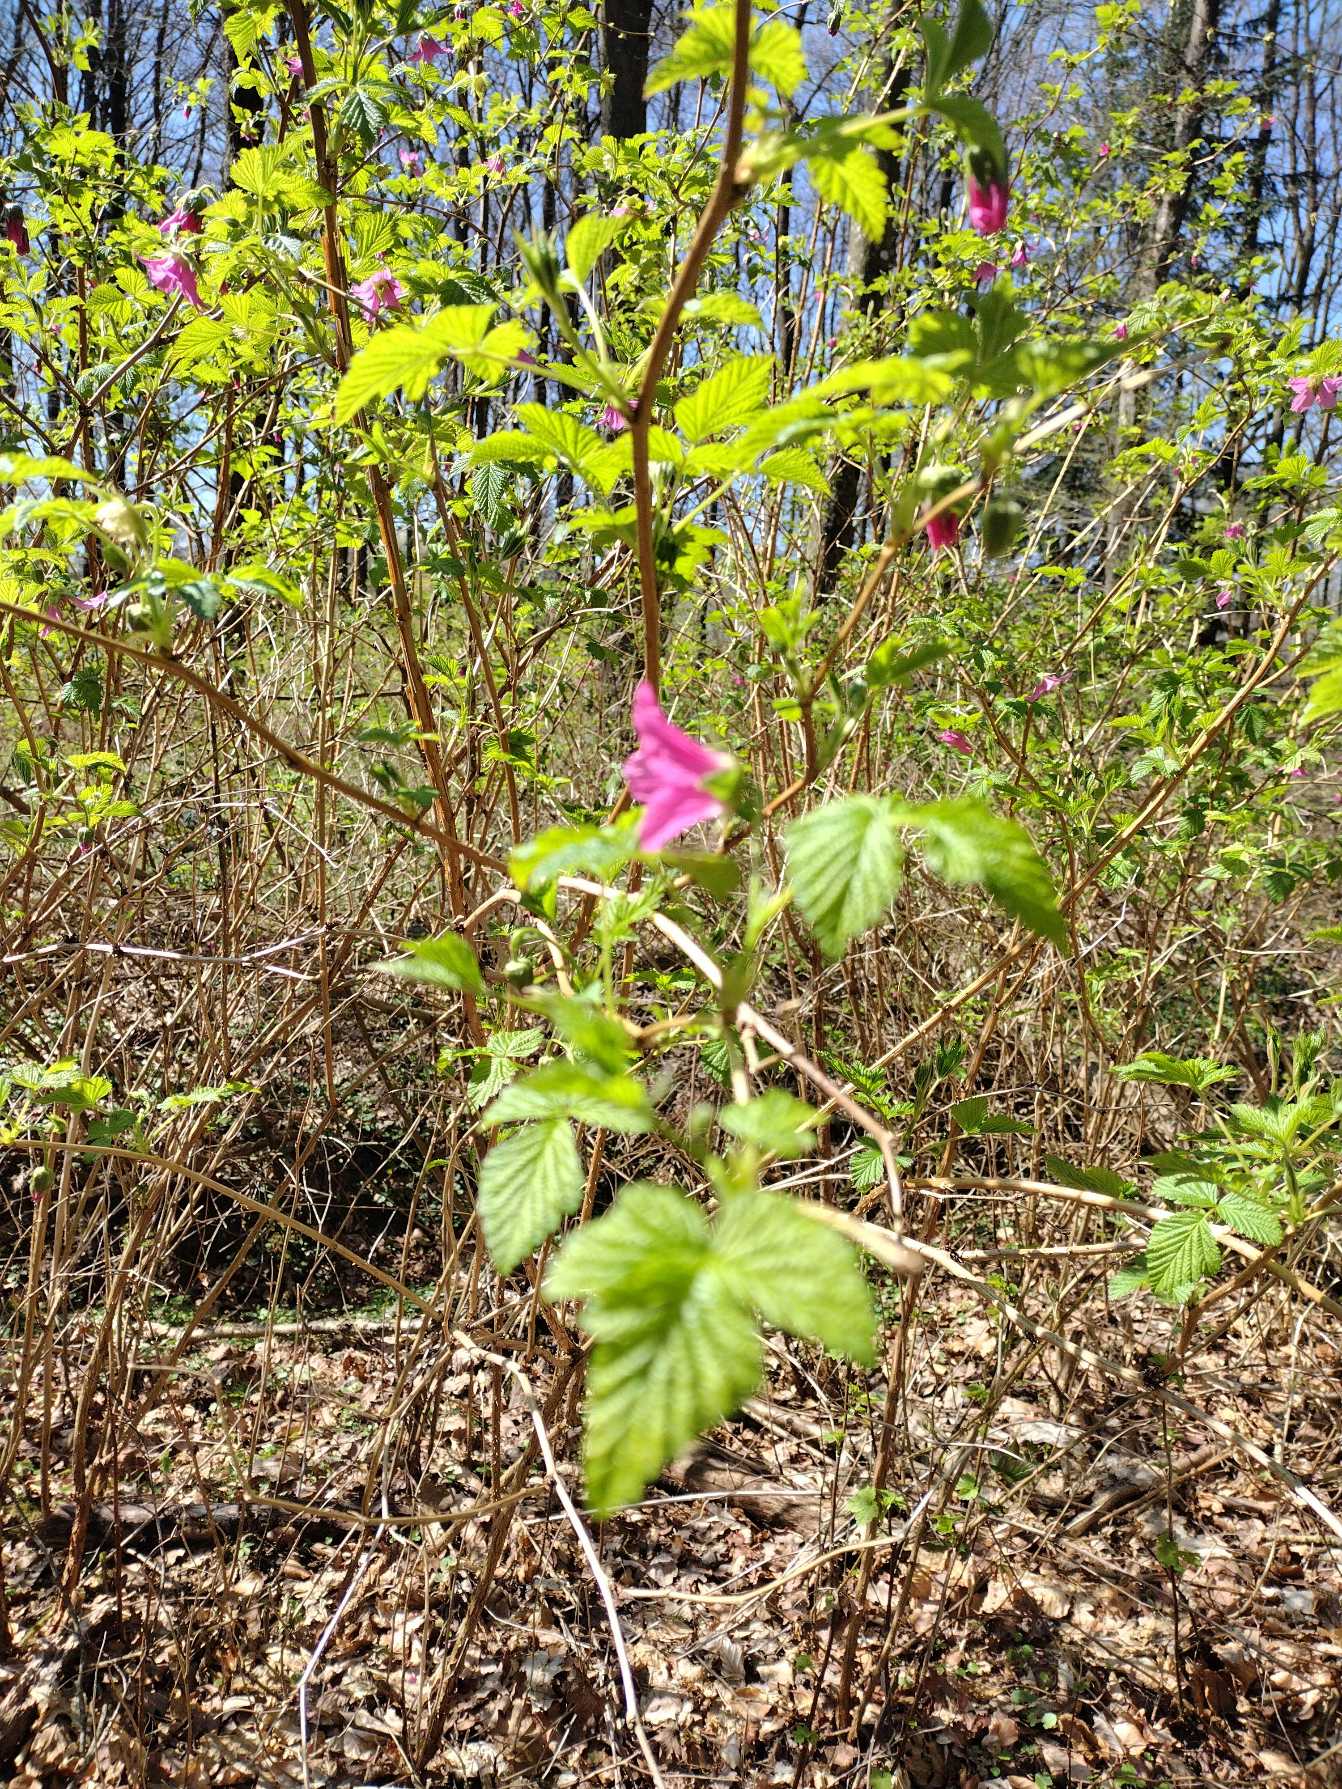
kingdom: Plantae
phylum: Tracheophyta
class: Magnoliopsida
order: Rosales
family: Rosaceae
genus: Rubus
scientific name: Rubus spectabilis
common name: Laksebær
